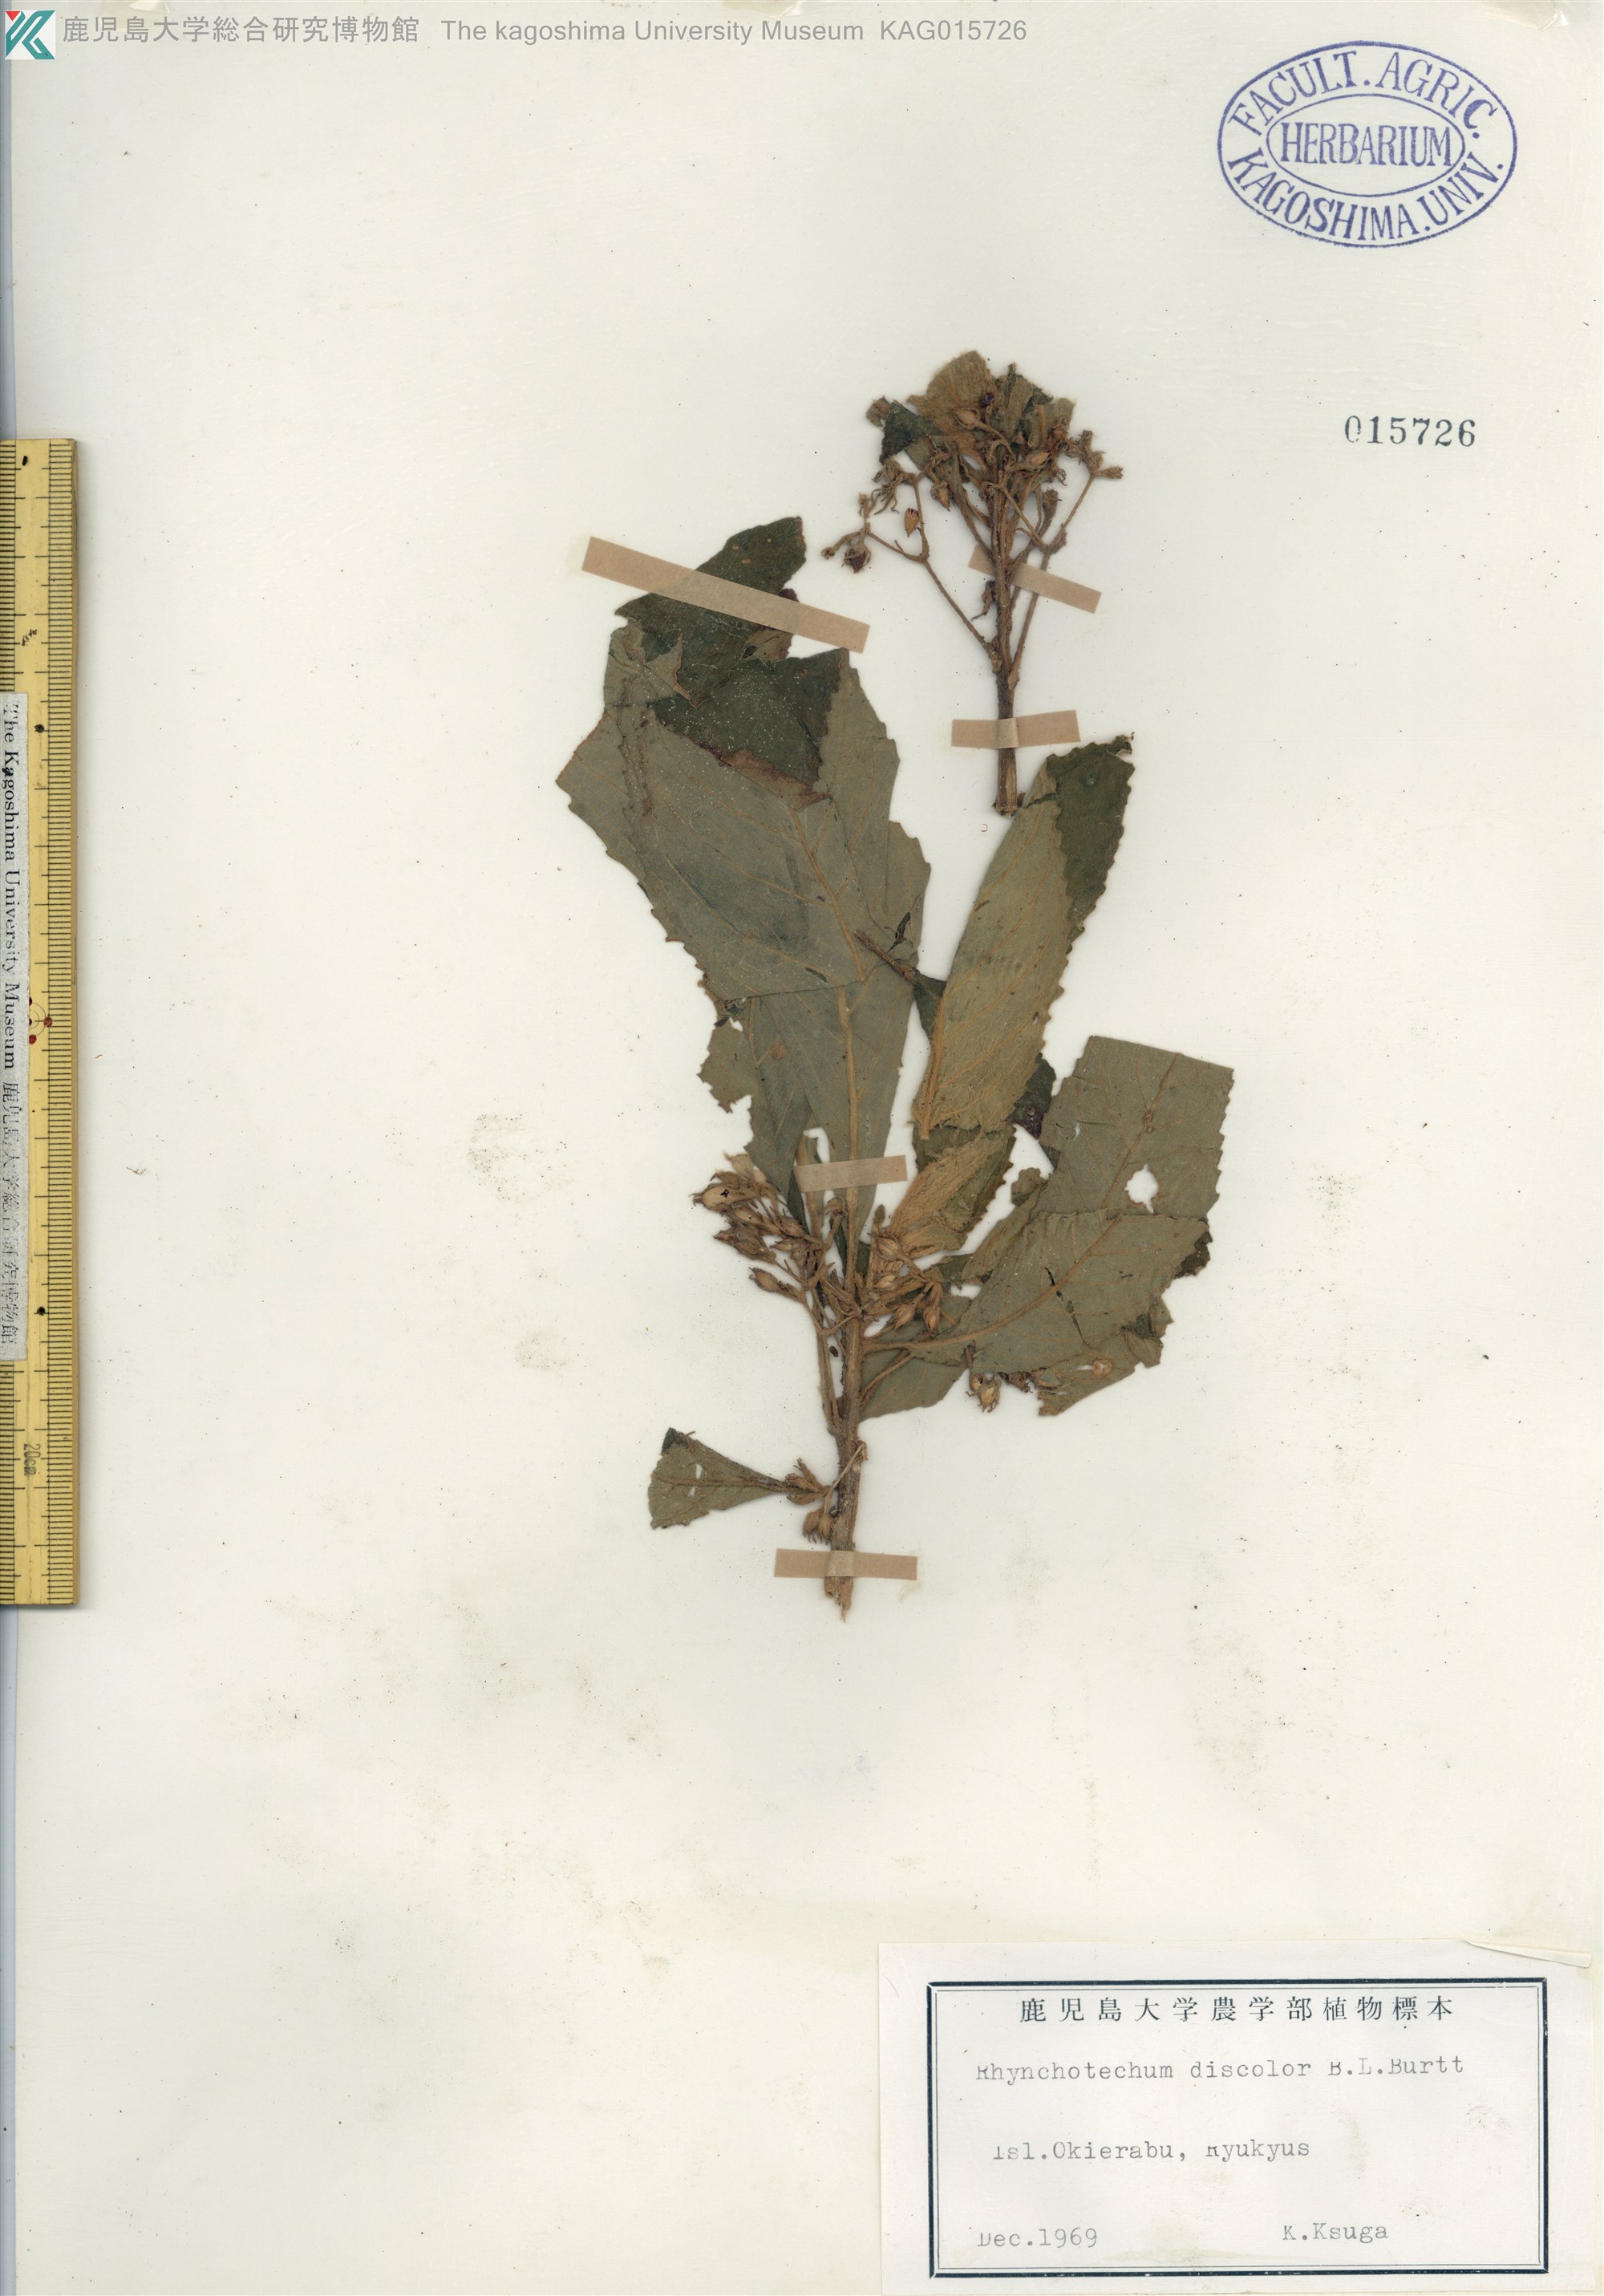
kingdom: Plantae
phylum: Tracheophyta
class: Magnoliopsida
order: Lamiales
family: Gesneriaceae
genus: Rhynchotechum
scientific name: Rhynchotechum discolor
